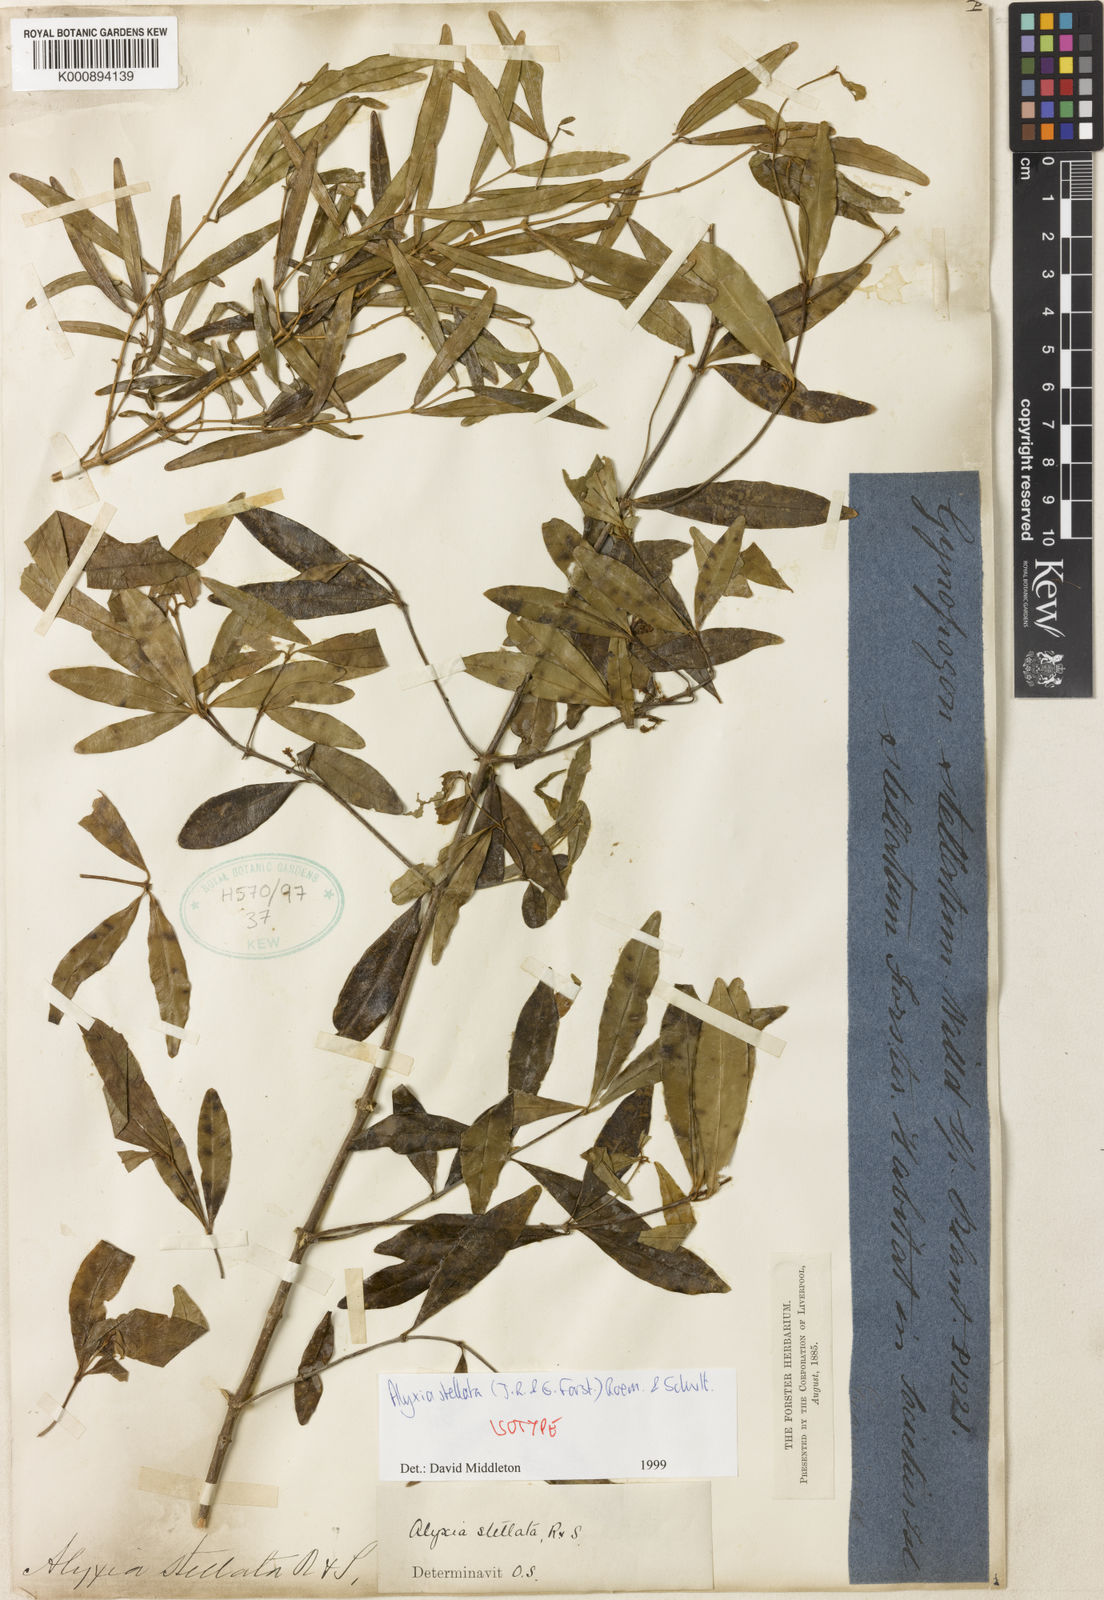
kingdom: Plantae
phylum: Tracheophyta
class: Magnoliopsida
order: Gentianales
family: Apocynaceae
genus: Alyxia
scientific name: Alyxia stellata
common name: Maile
